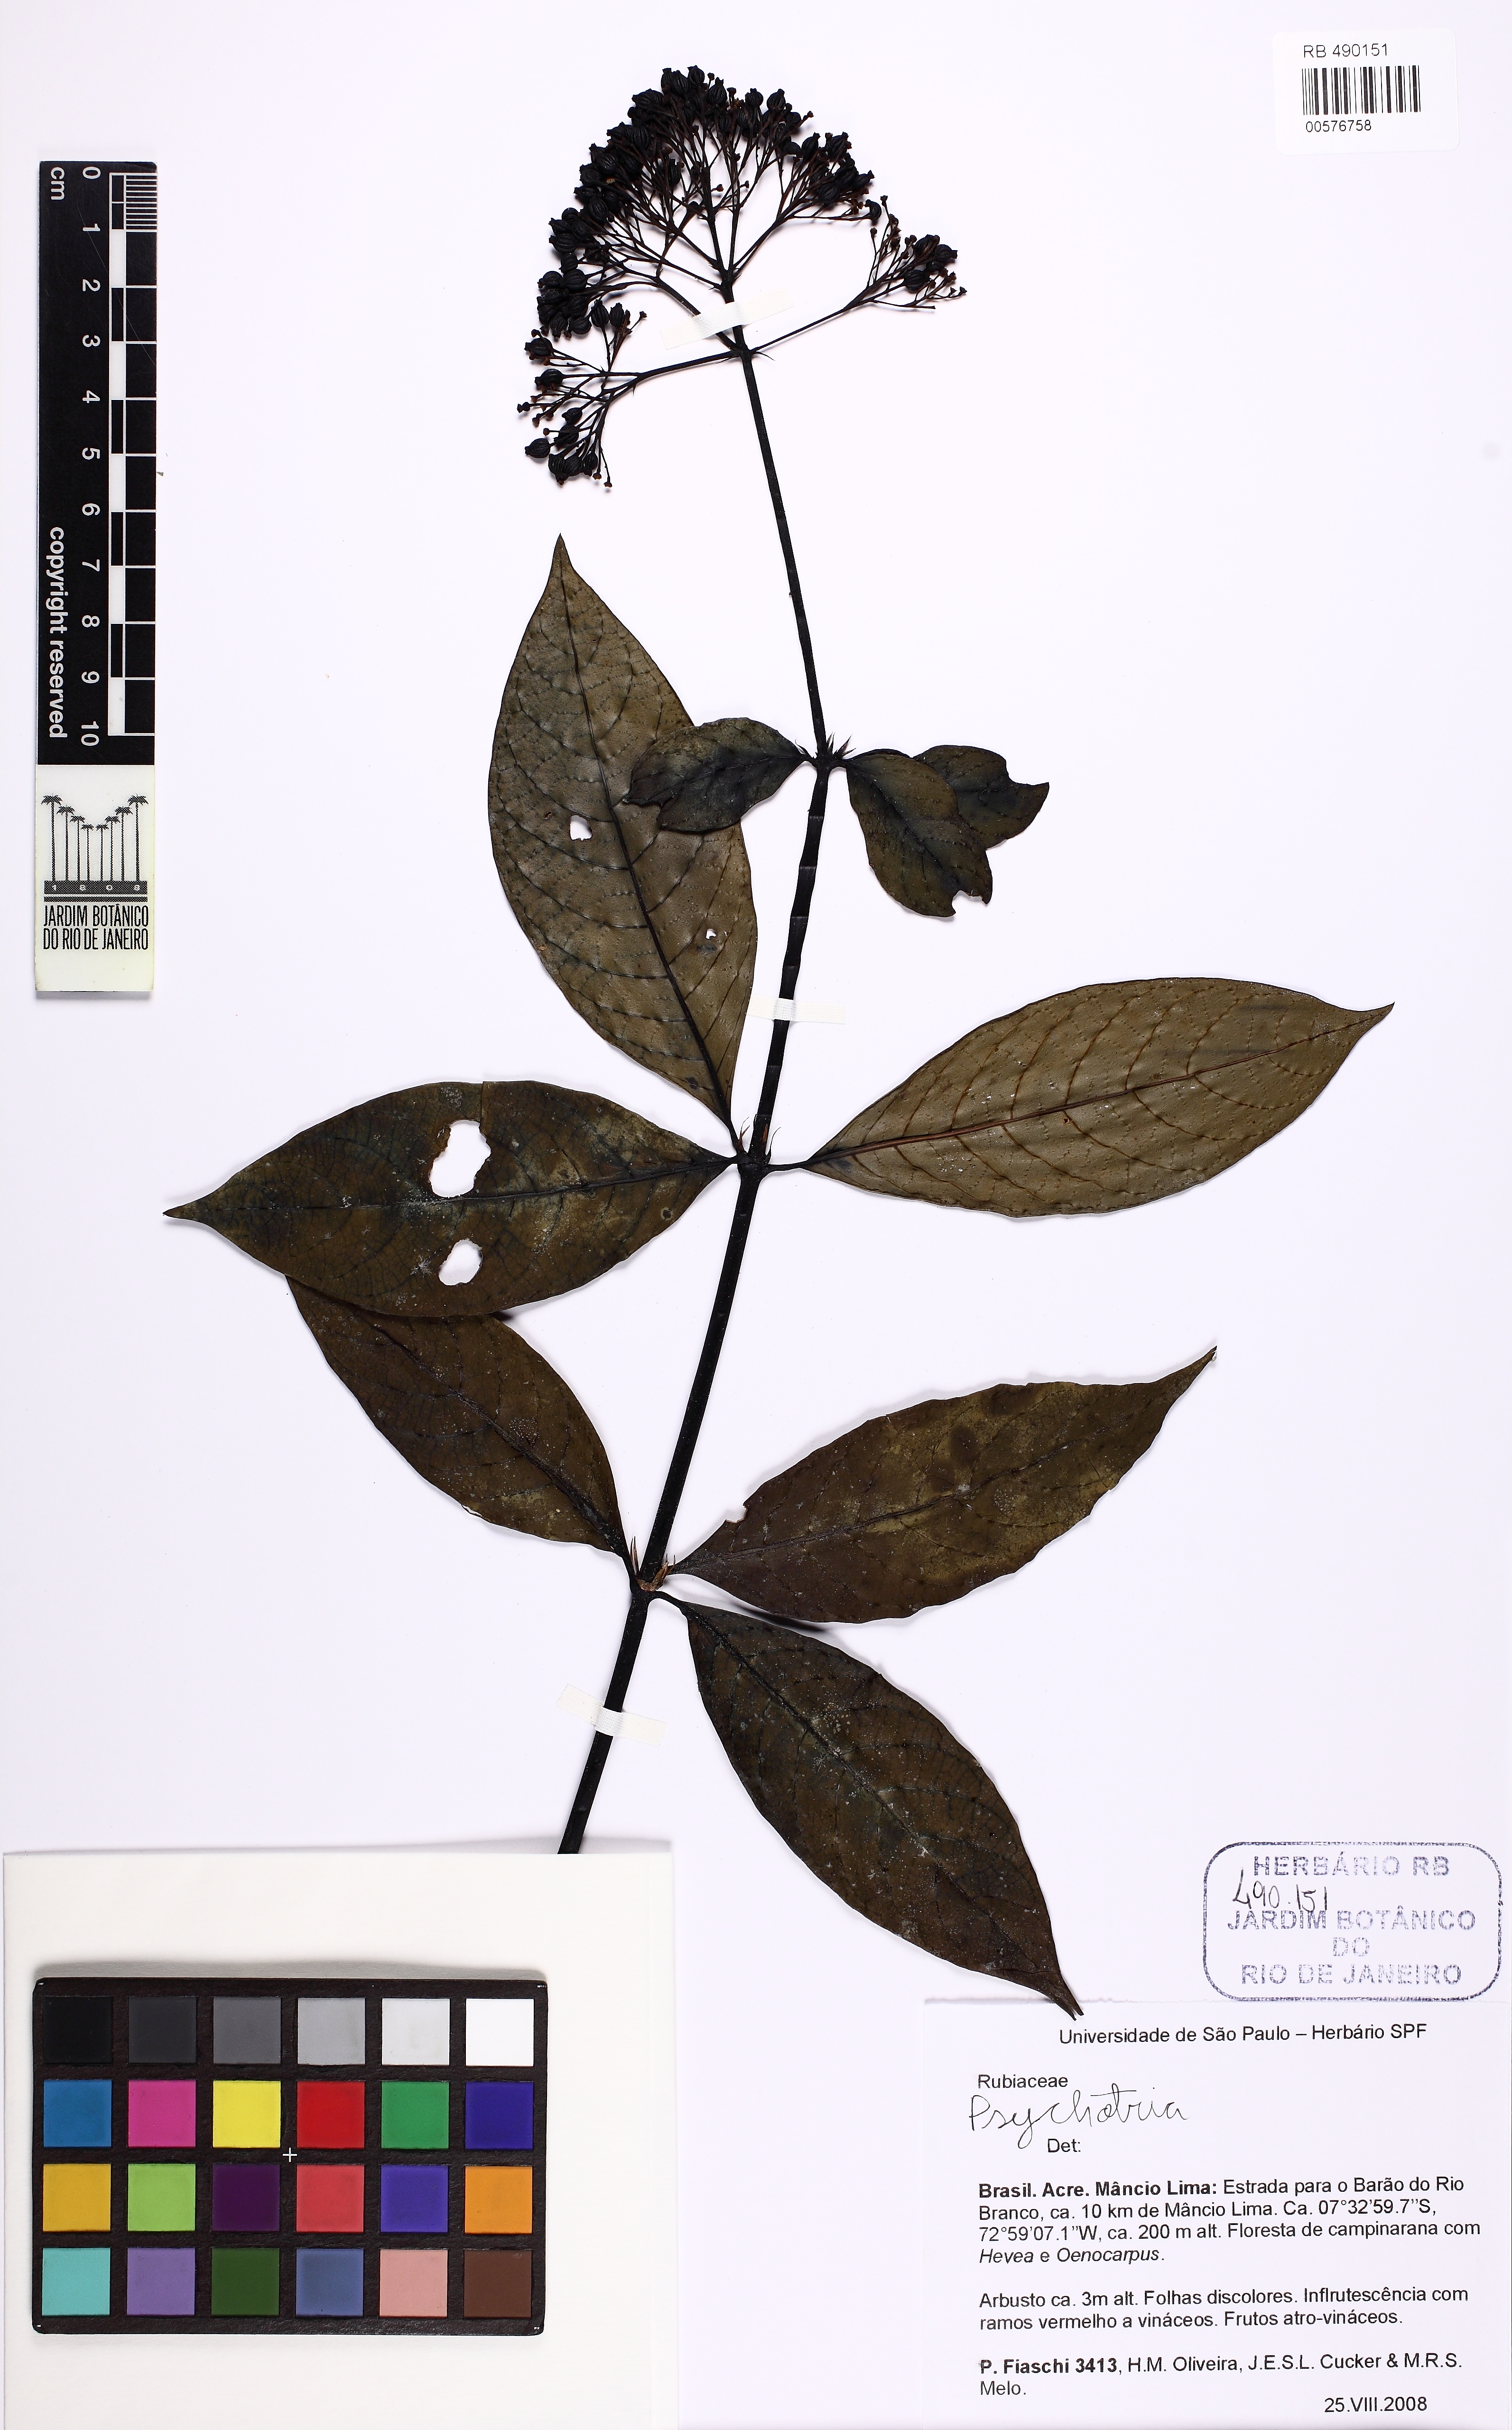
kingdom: Plantae
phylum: Tracheophyta
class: Magnoliopsida
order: Gentianales
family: Rubiaceae
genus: Psychotria
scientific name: Psychotria
